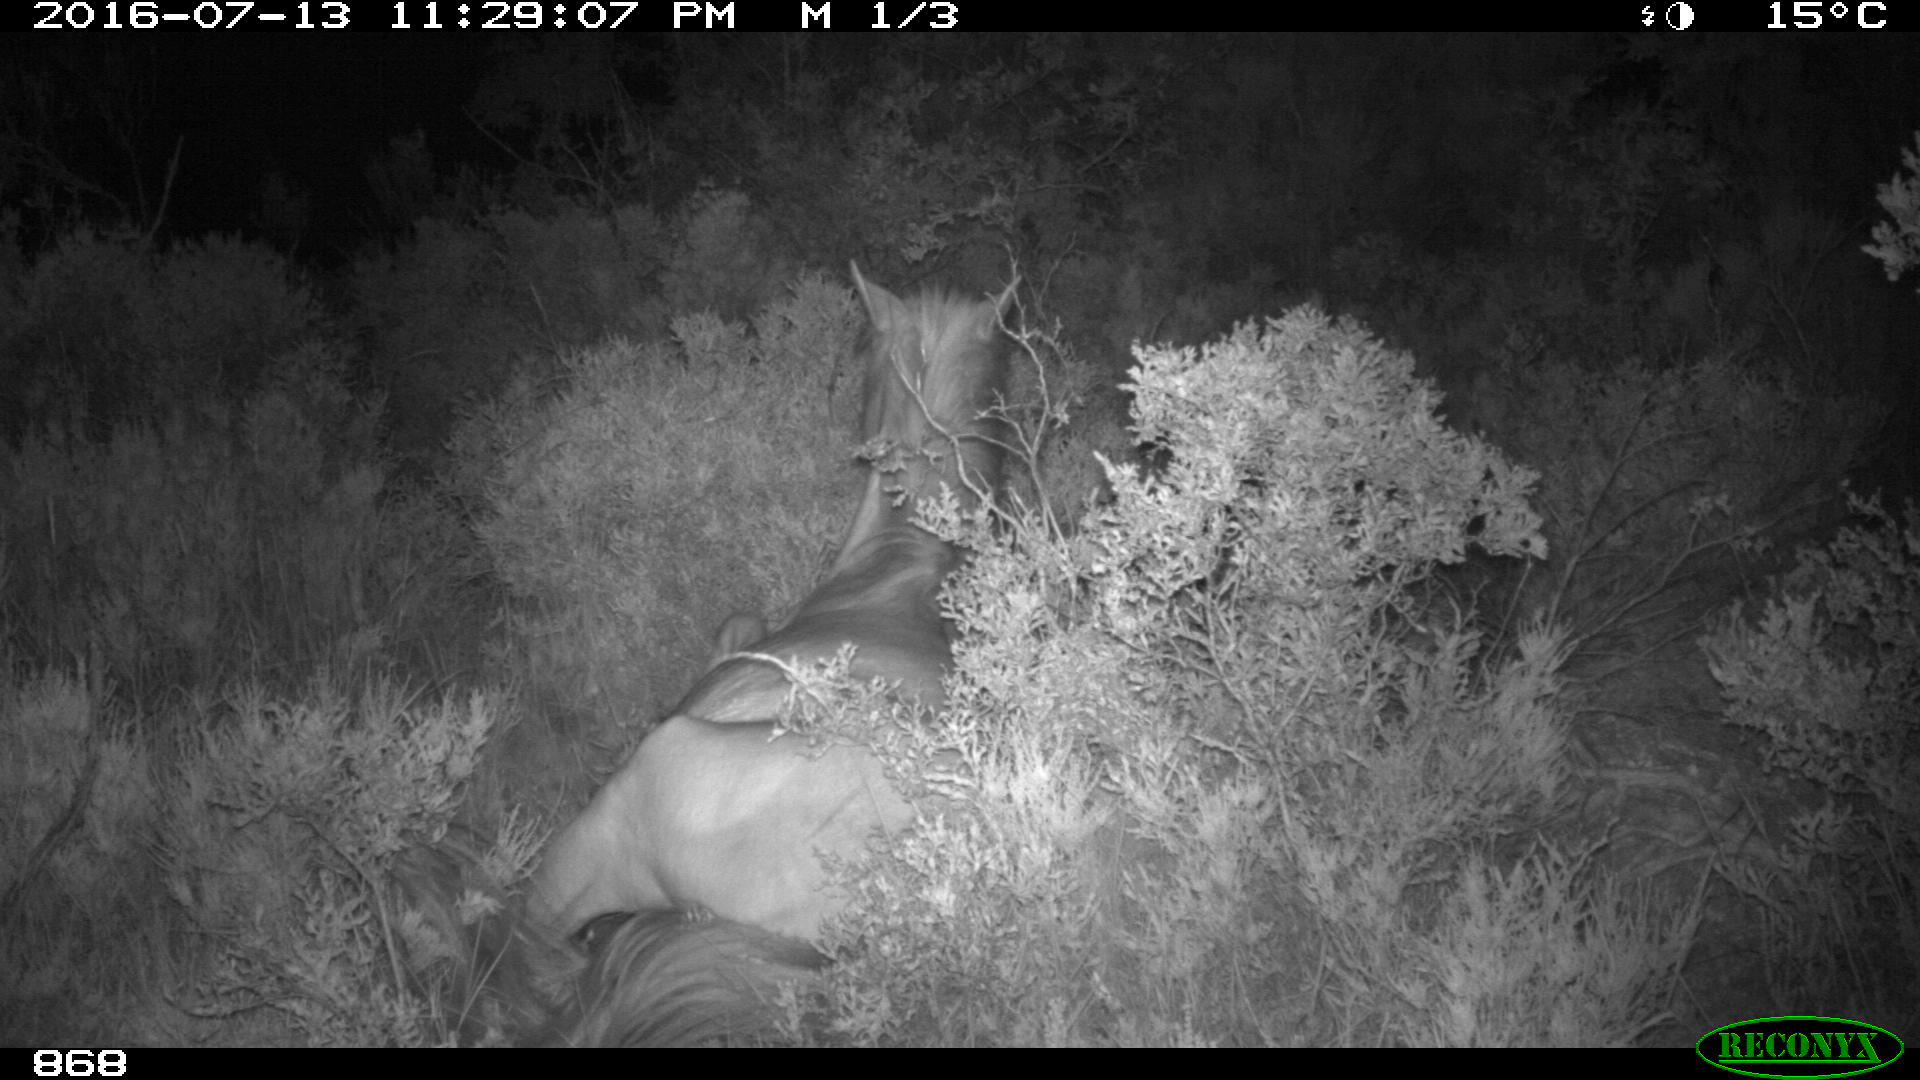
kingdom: Animalia
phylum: Chordata
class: Mammalia
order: Perissodactyla
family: Equidae
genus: Equus
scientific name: Equus caballus
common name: Horse
